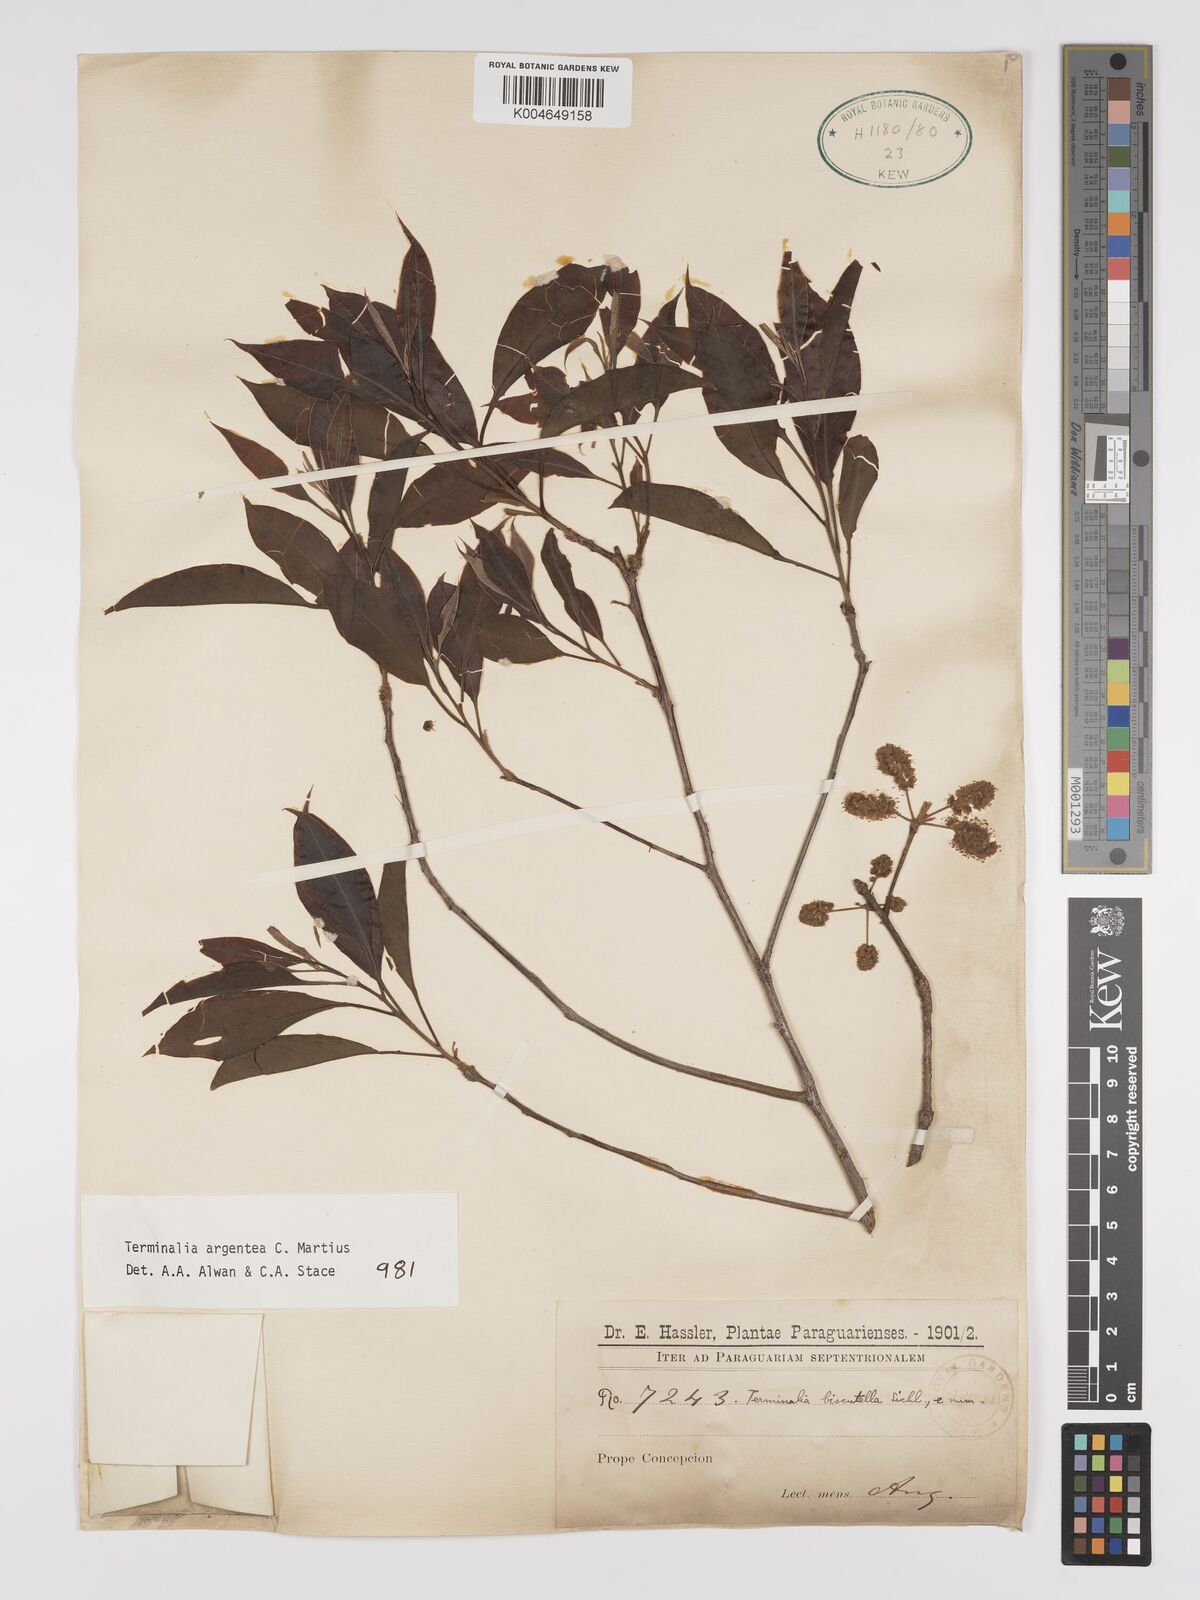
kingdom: Plantae
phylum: Tracheophyta
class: Magnoliopsida
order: Myrtales
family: Combretaceae
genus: Terminalia
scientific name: Terminalia argentea
